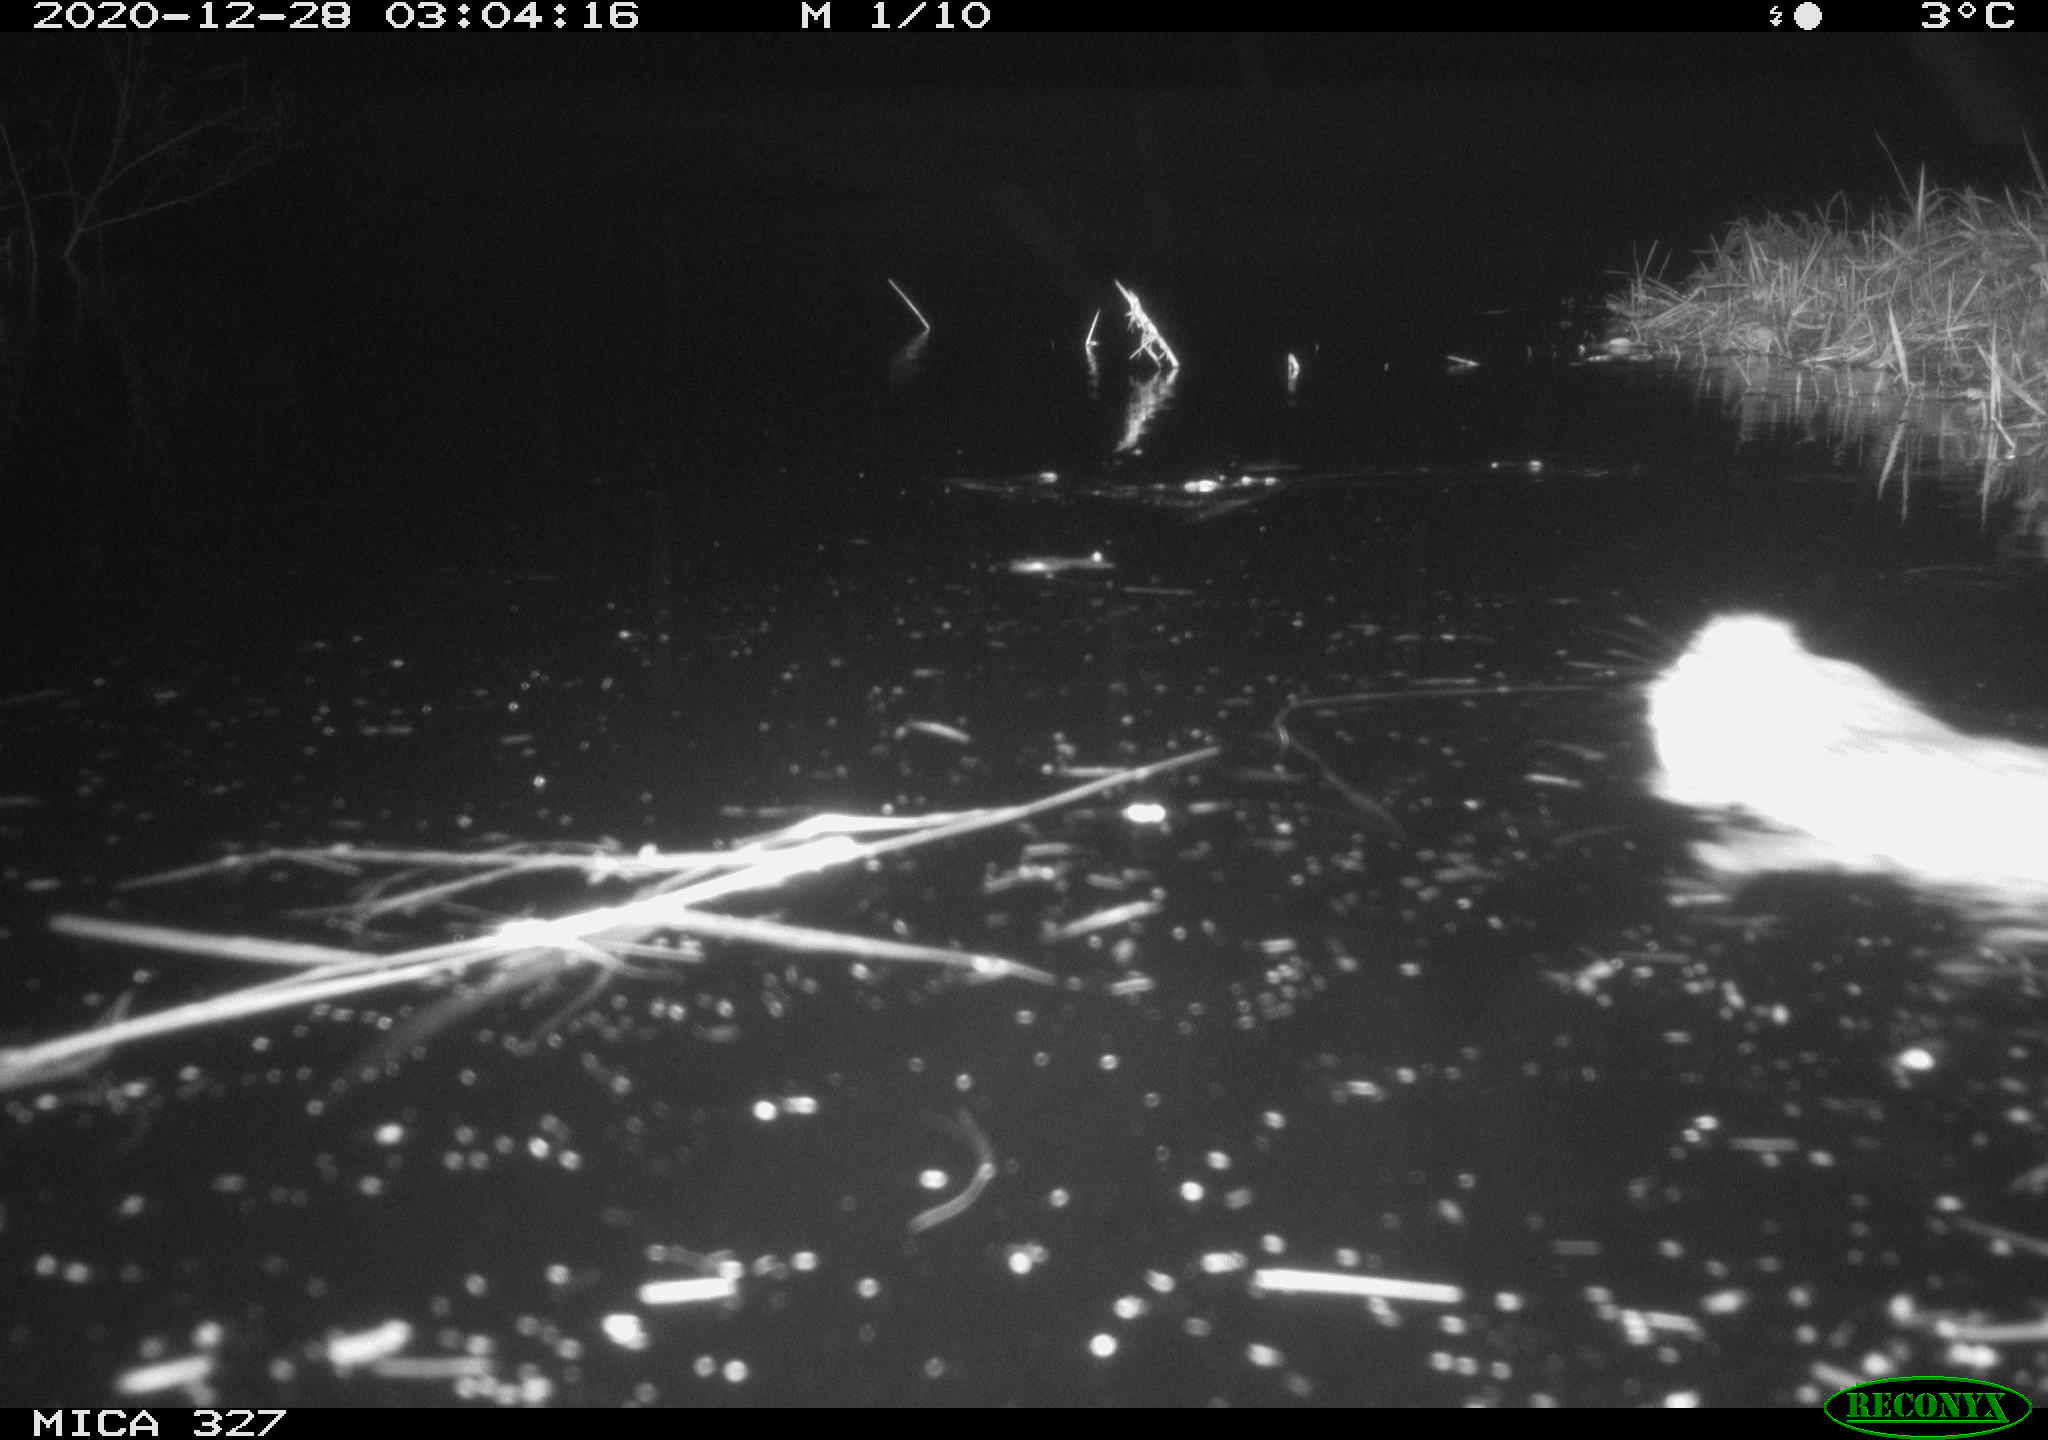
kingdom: Animalia
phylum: Chordata
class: Mammalia
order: Rodentia
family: Cricetidae
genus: Ondatra
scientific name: Ondatra zibethicus
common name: Muskrat
